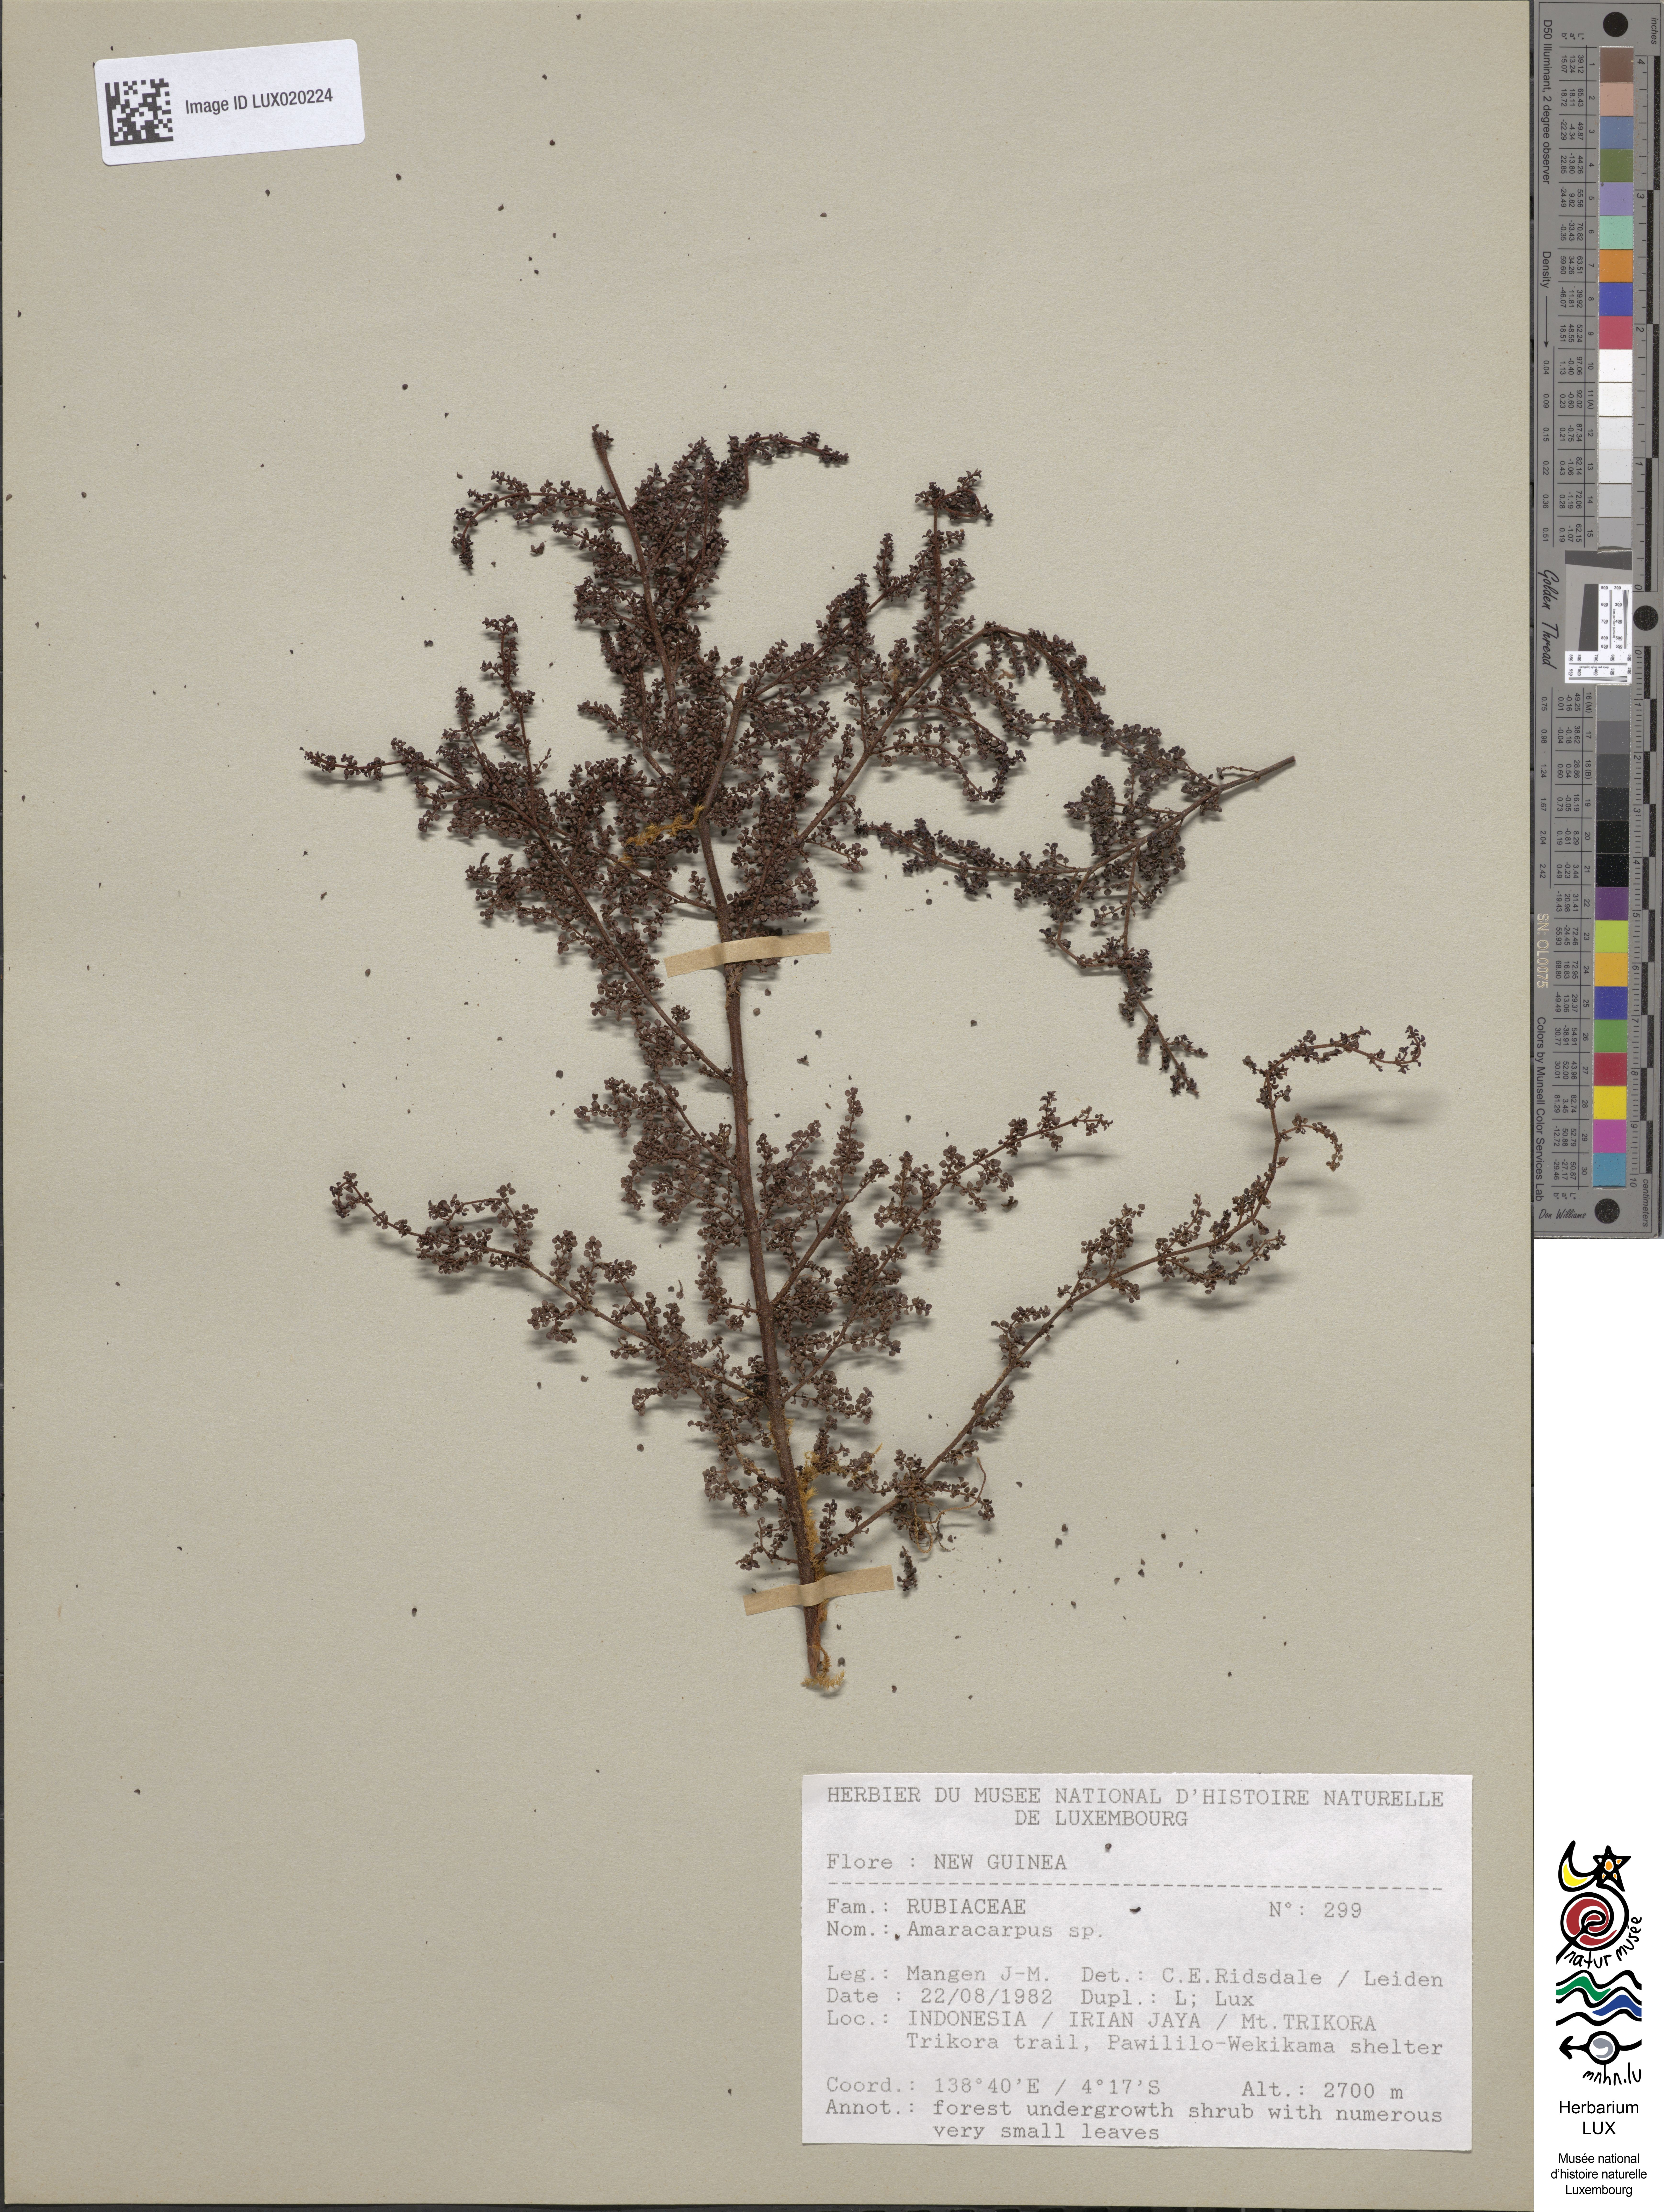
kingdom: Plantae
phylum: Tracheophyta
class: Magnoliopsida
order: Gentianales
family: Rubiaceae
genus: Amaracarpus
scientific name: Amaracarpus
